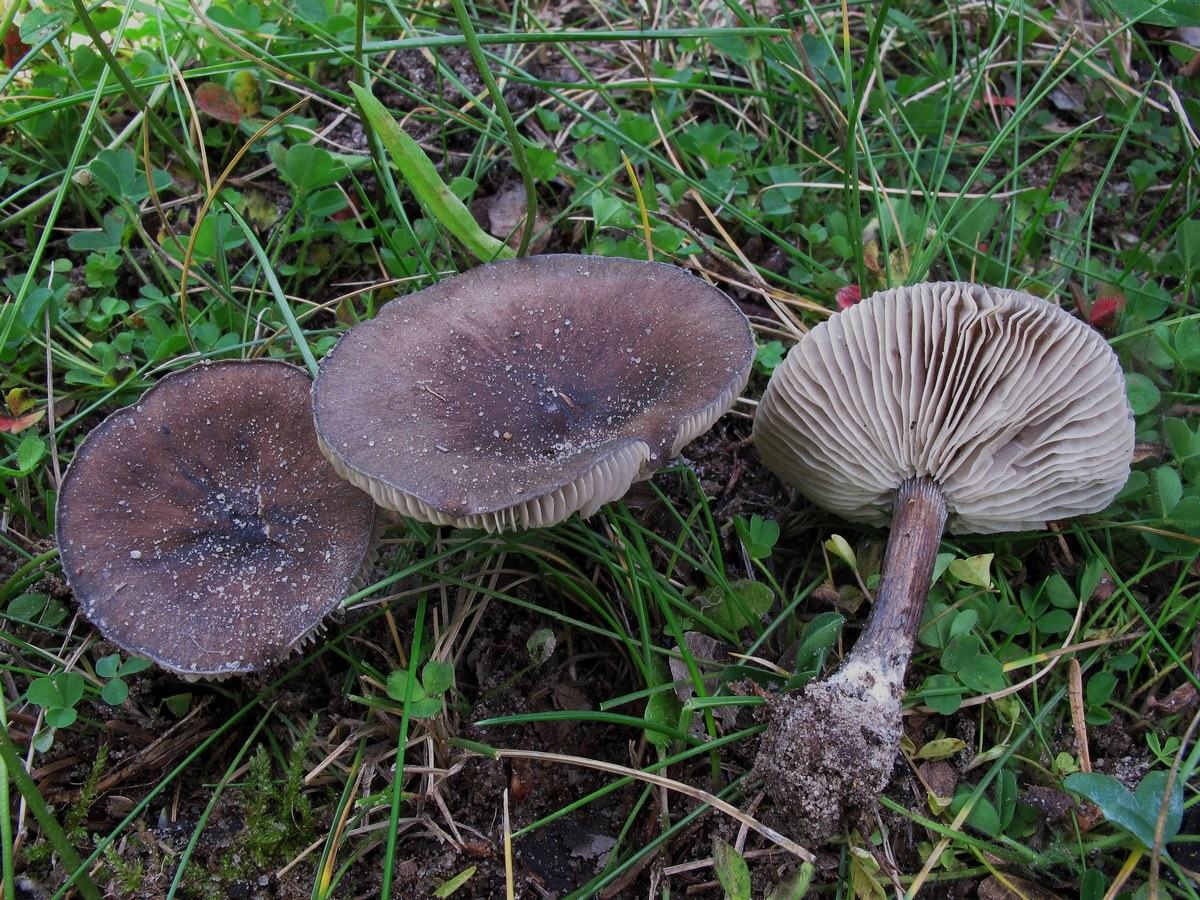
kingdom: Fungi
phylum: Basidiomycota
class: Agaricomycetes
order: Agaricales
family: Tricholomataceae
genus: Melanoleuca
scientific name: Melanoleuca exscissa
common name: gusten munkehat
